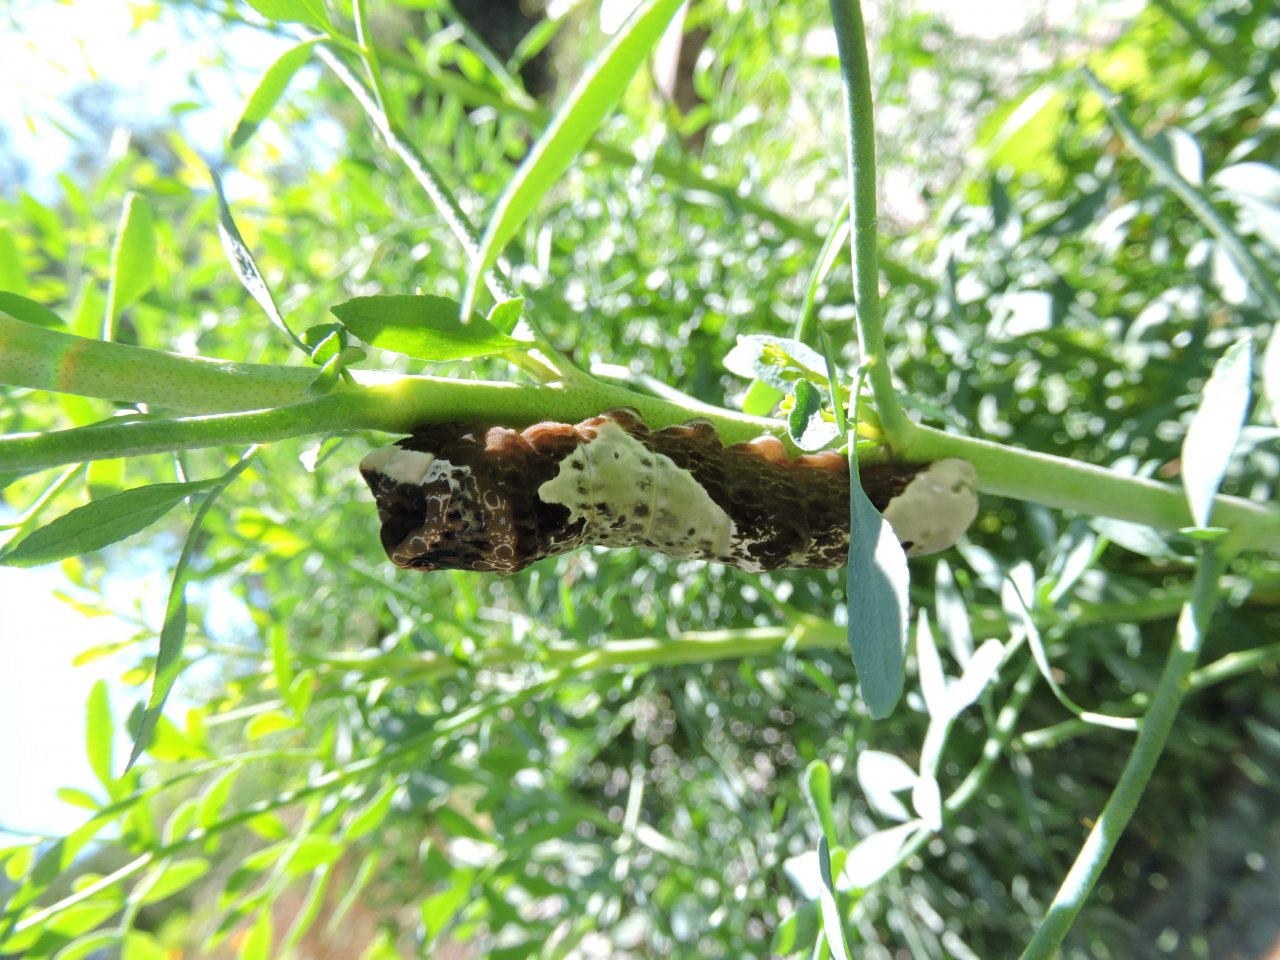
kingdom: Animalia
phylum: Arthropoda
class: Insecta
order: Lepidoptera
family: Papilionidae
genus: Papilio
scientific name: Papilio cresphontes
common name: Eastern Giant Swallowtail
